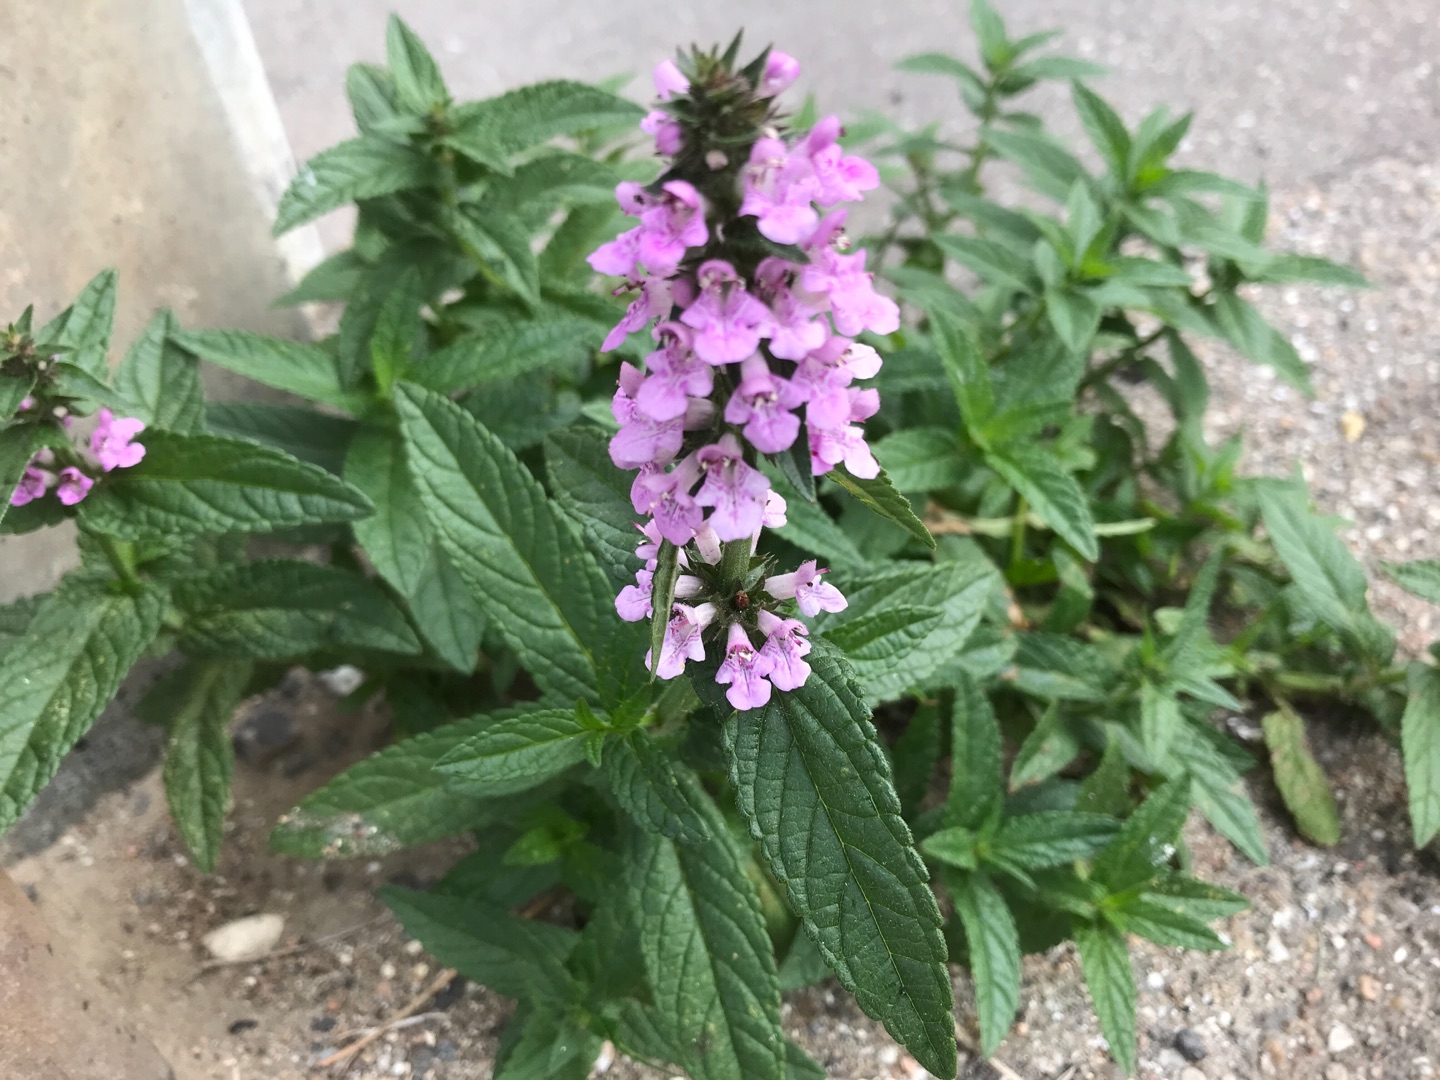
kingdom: Plantae
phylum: Tracheophyta
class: Magnoliopsida
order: Lamiales
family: Lamiaceae
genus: Stachys
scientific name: Stachys palustris
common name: Kær-galtetand
